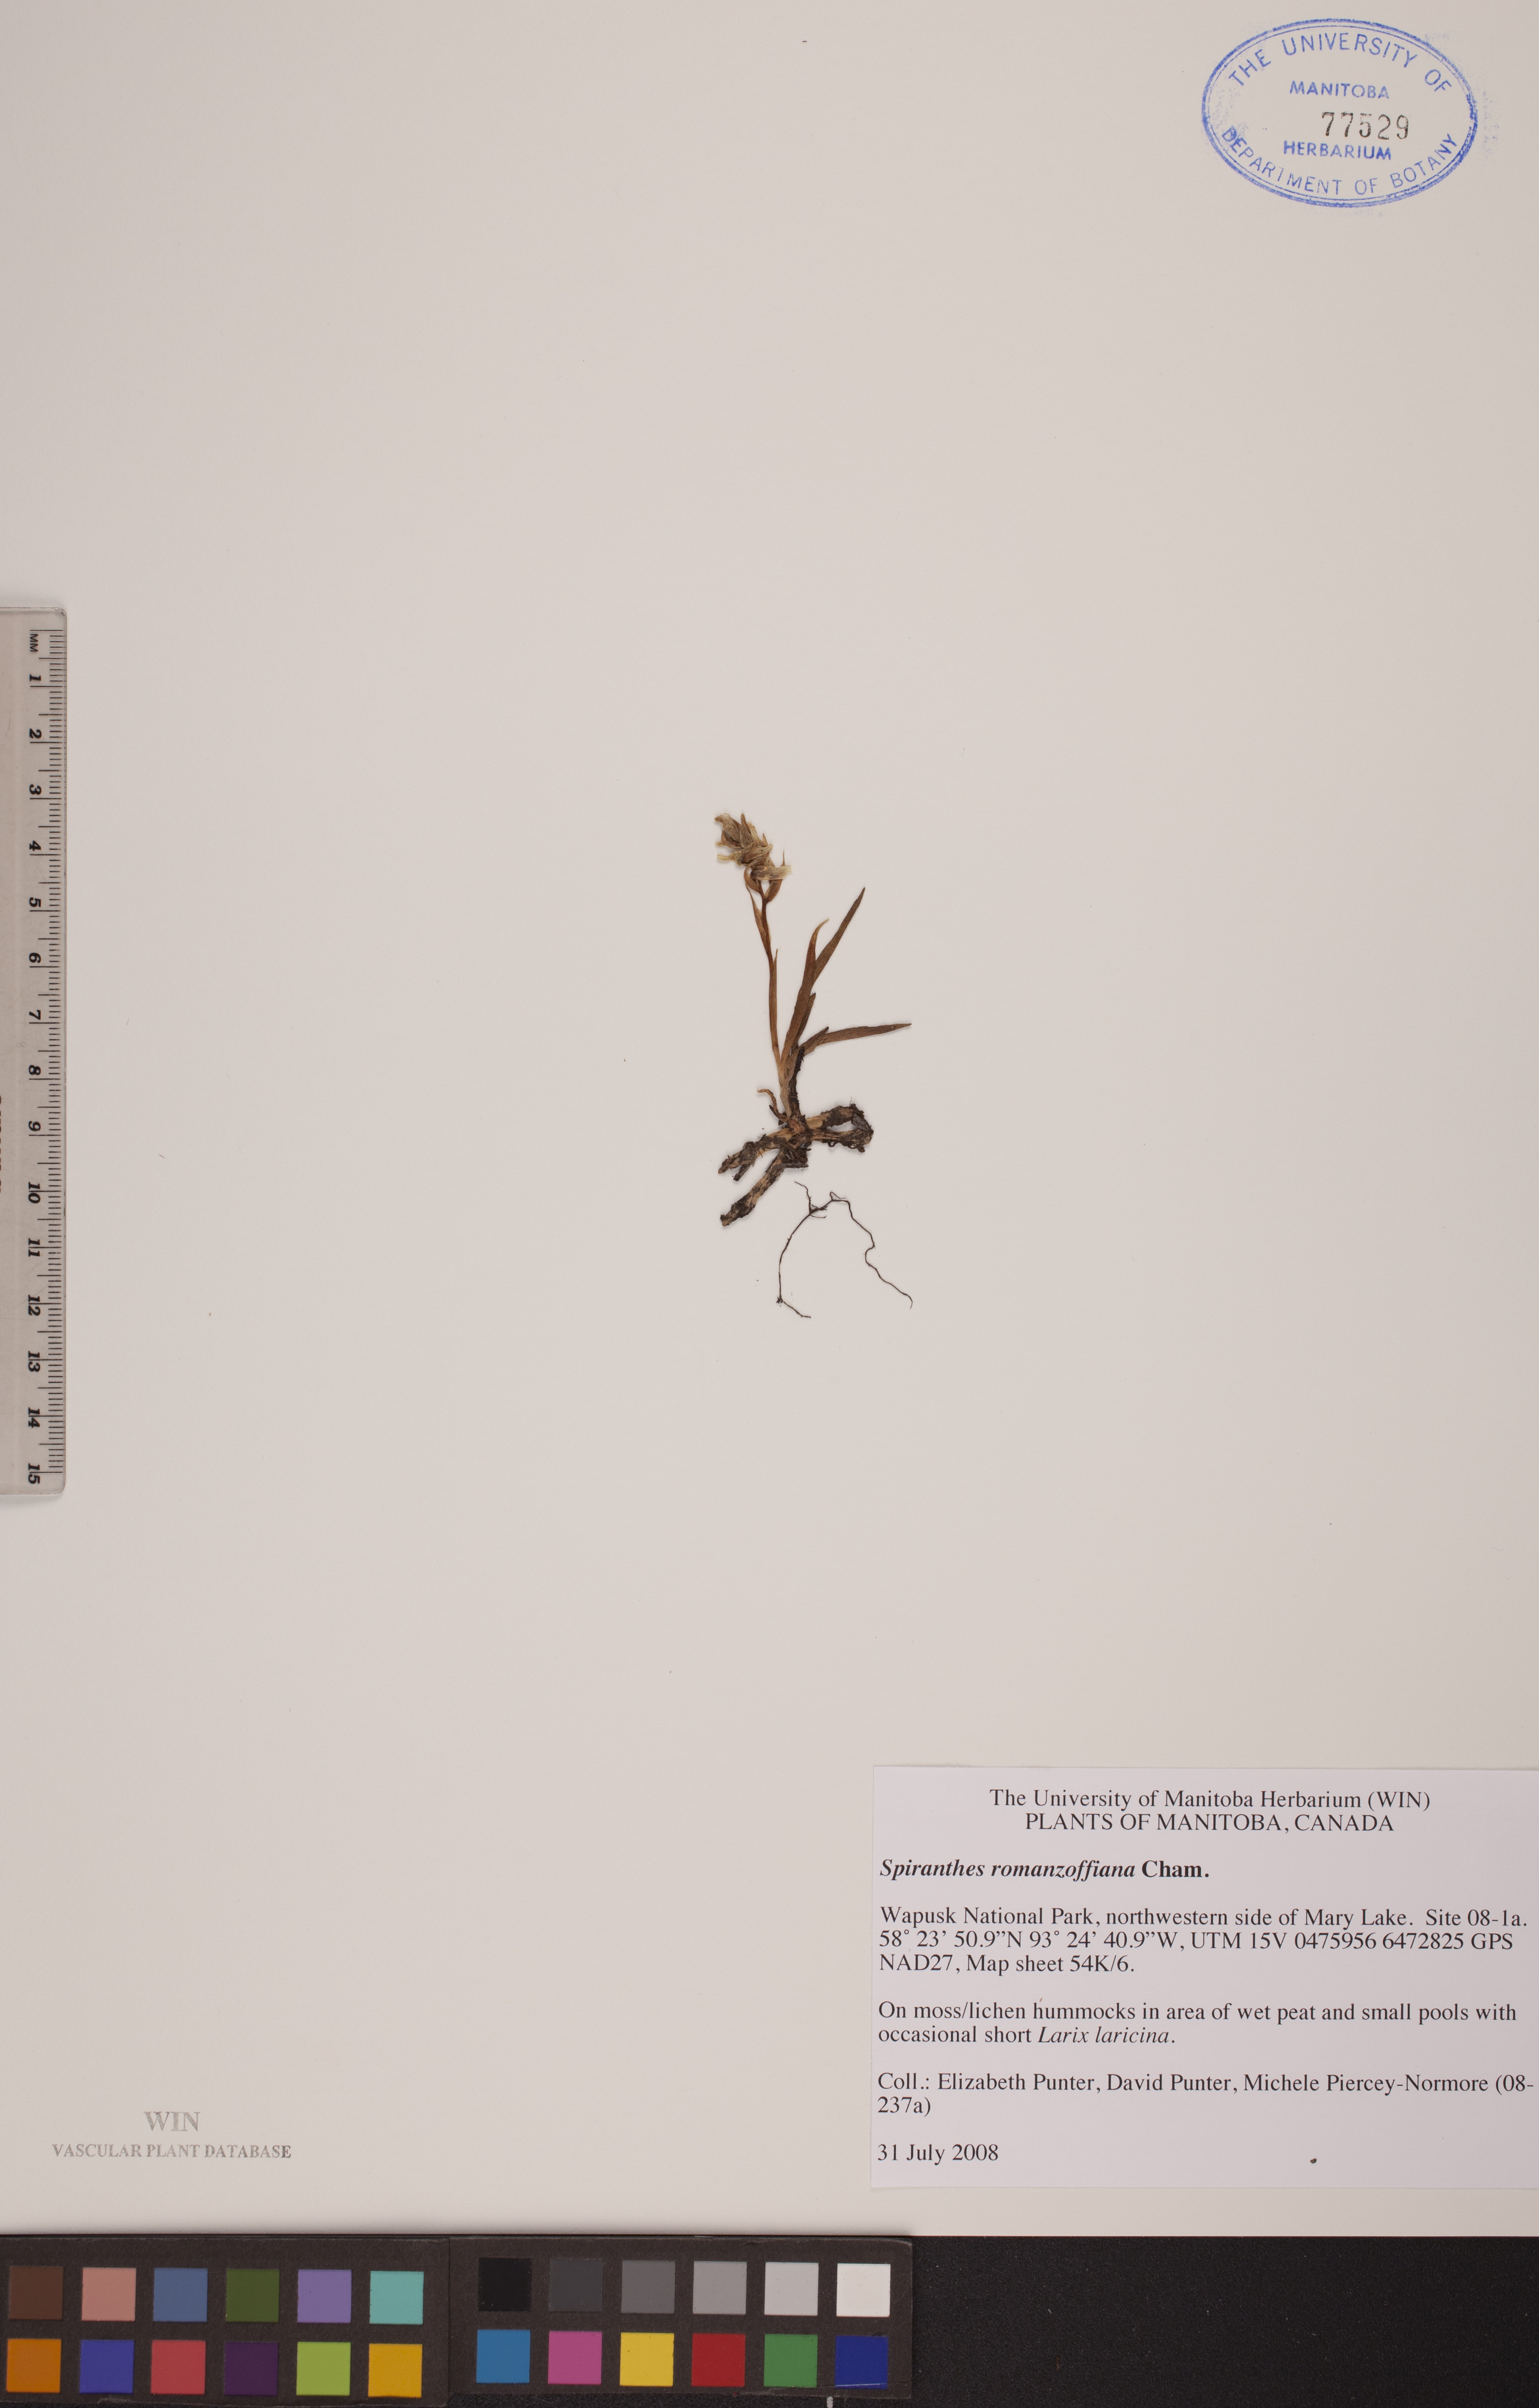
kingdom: Plantae
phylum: Tracheophyta
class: Liliopsida
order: Asparagales
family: Orchidaceae
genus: Spiranthes
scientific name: Spiranthes romanzoffiana
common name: Irish lady's-tresses
